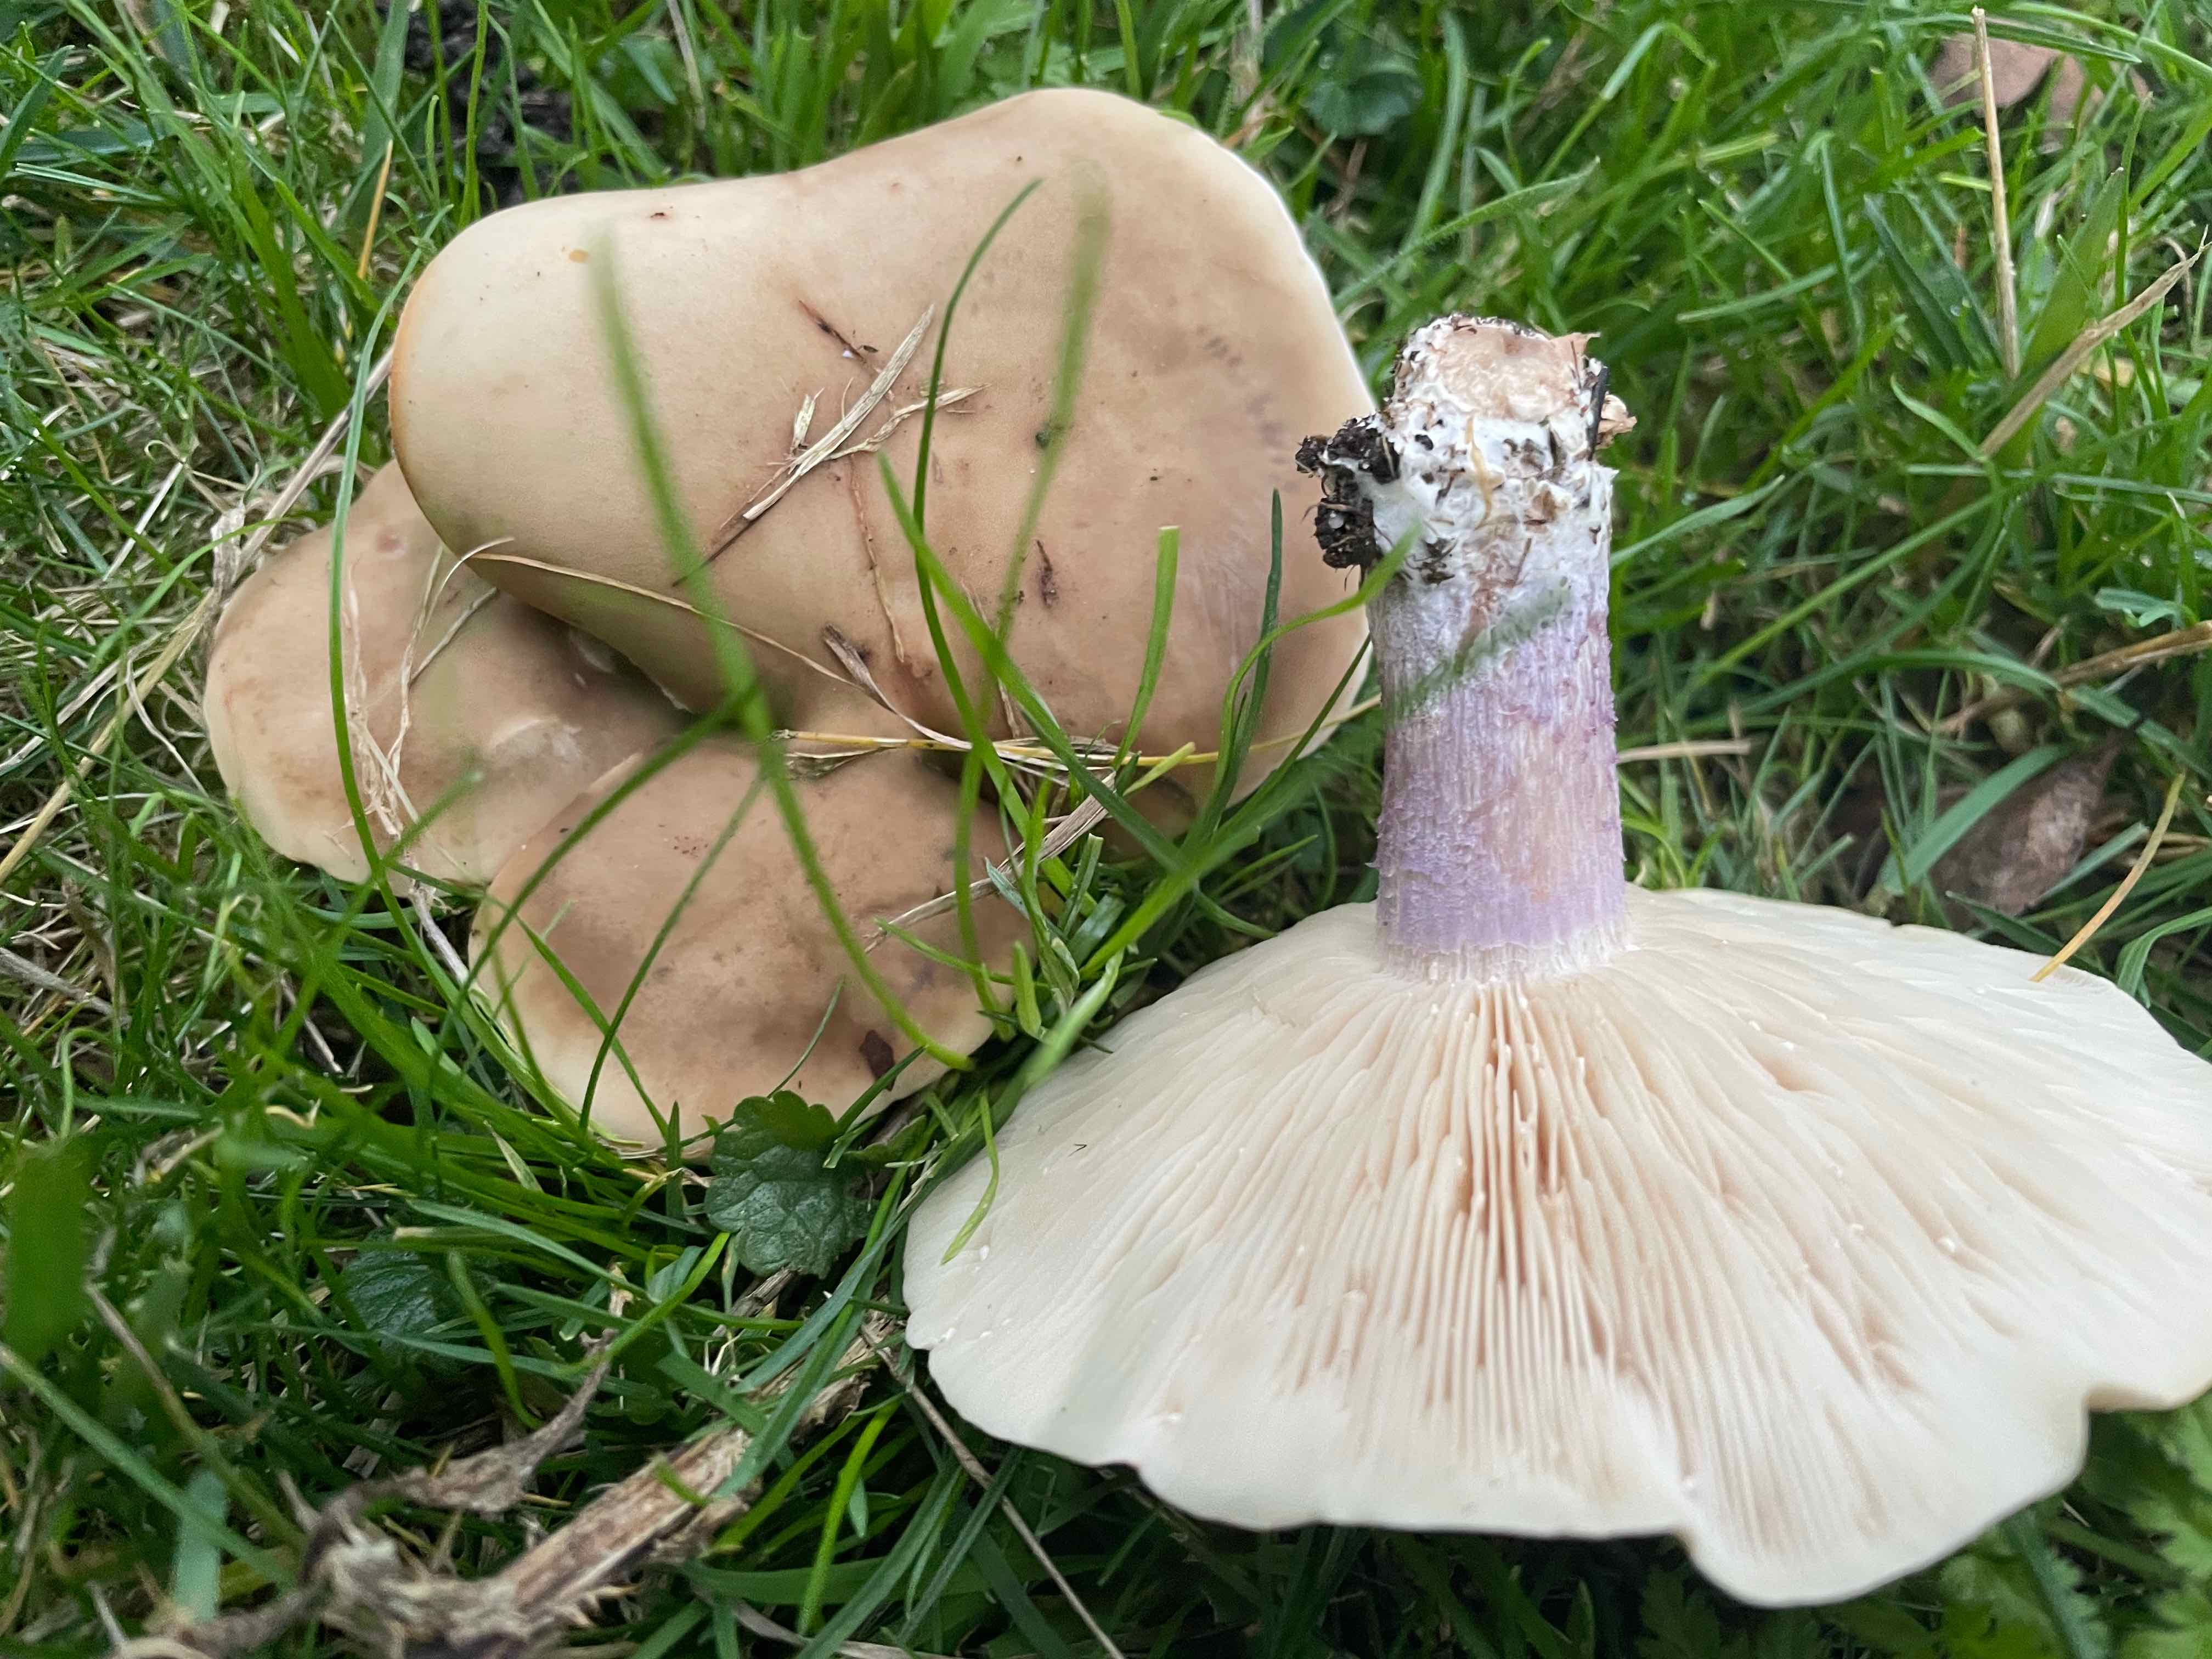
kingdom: Fungi
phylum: Basidiomycota
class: Agaricomycetes
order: Agaricales
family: Tricholomataceae
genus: Lepista
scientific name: Lepista personata
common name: bleg hekseringshat
